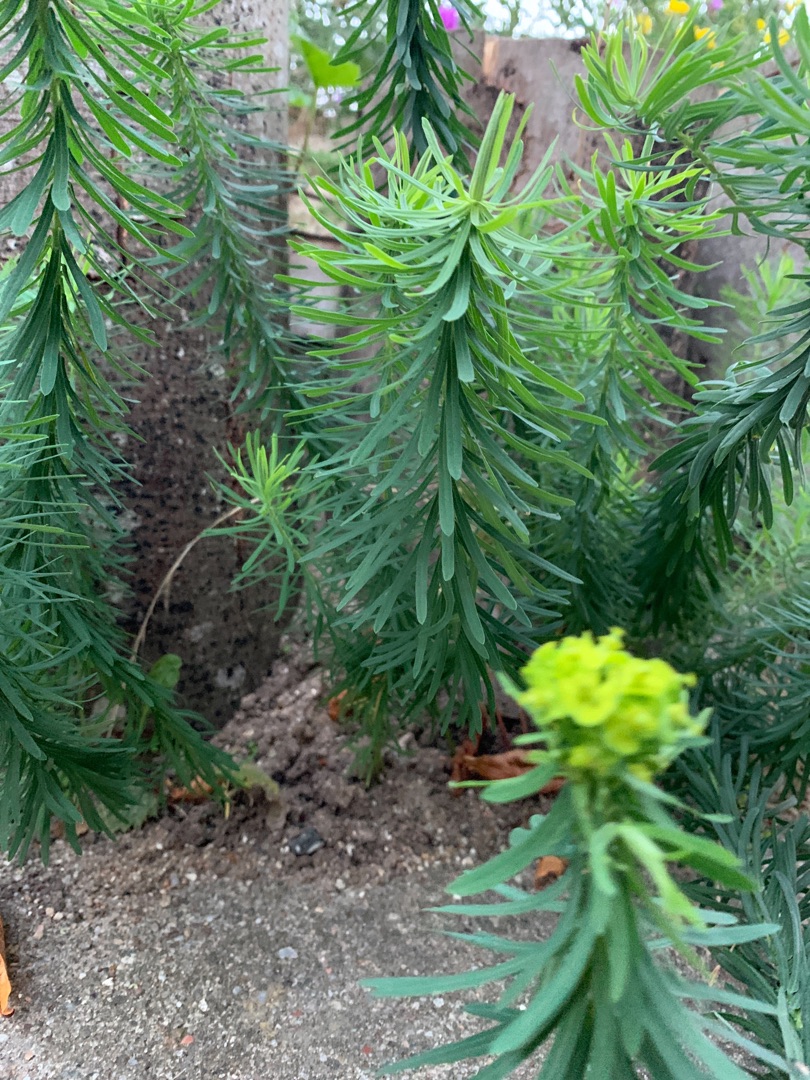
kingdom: Plantae
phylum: Tracheophyta
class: Magnoliopsida
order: Malpighiales
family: Euphorbiaceae
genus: Euphorbia
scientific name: Euphorbia cyparissias
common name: Cypres-vortemælk
